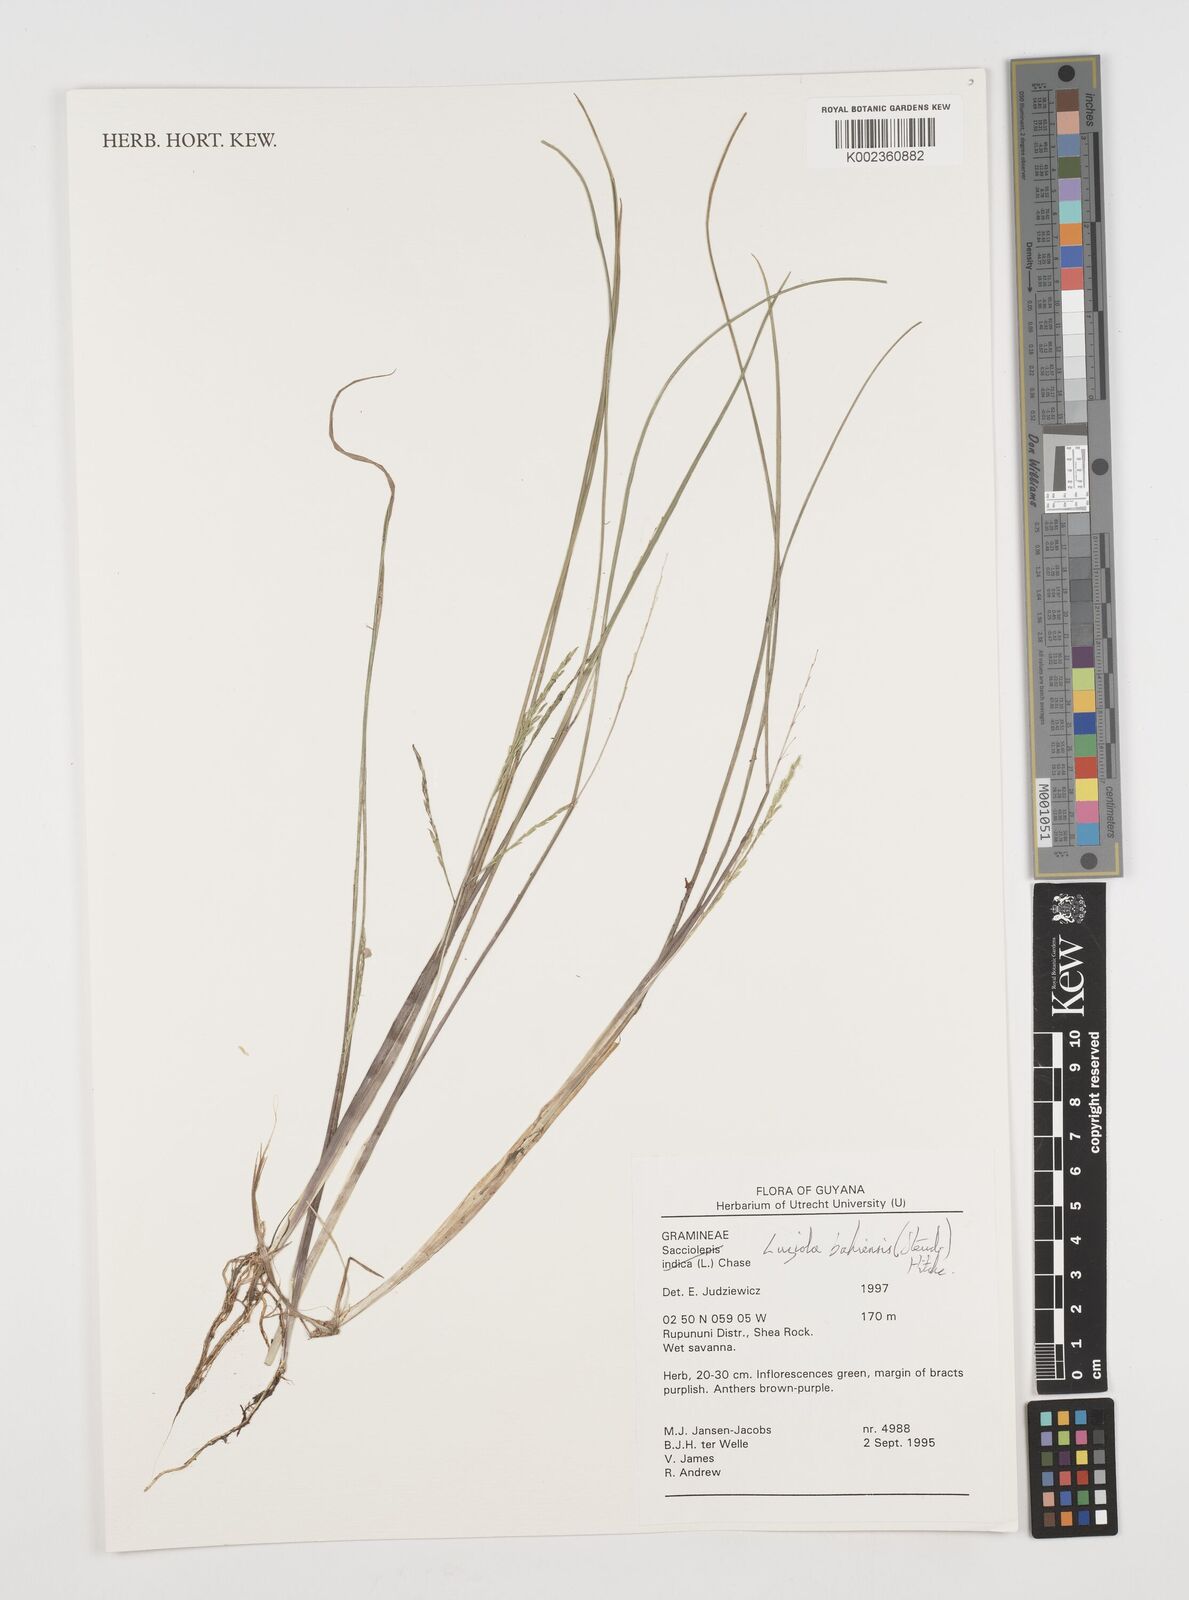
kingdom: Plantae
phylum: Tracheophyta
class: Liliopsida
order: Poales
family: Poaceae
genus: Luziola
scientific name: Luziola bahiensis
